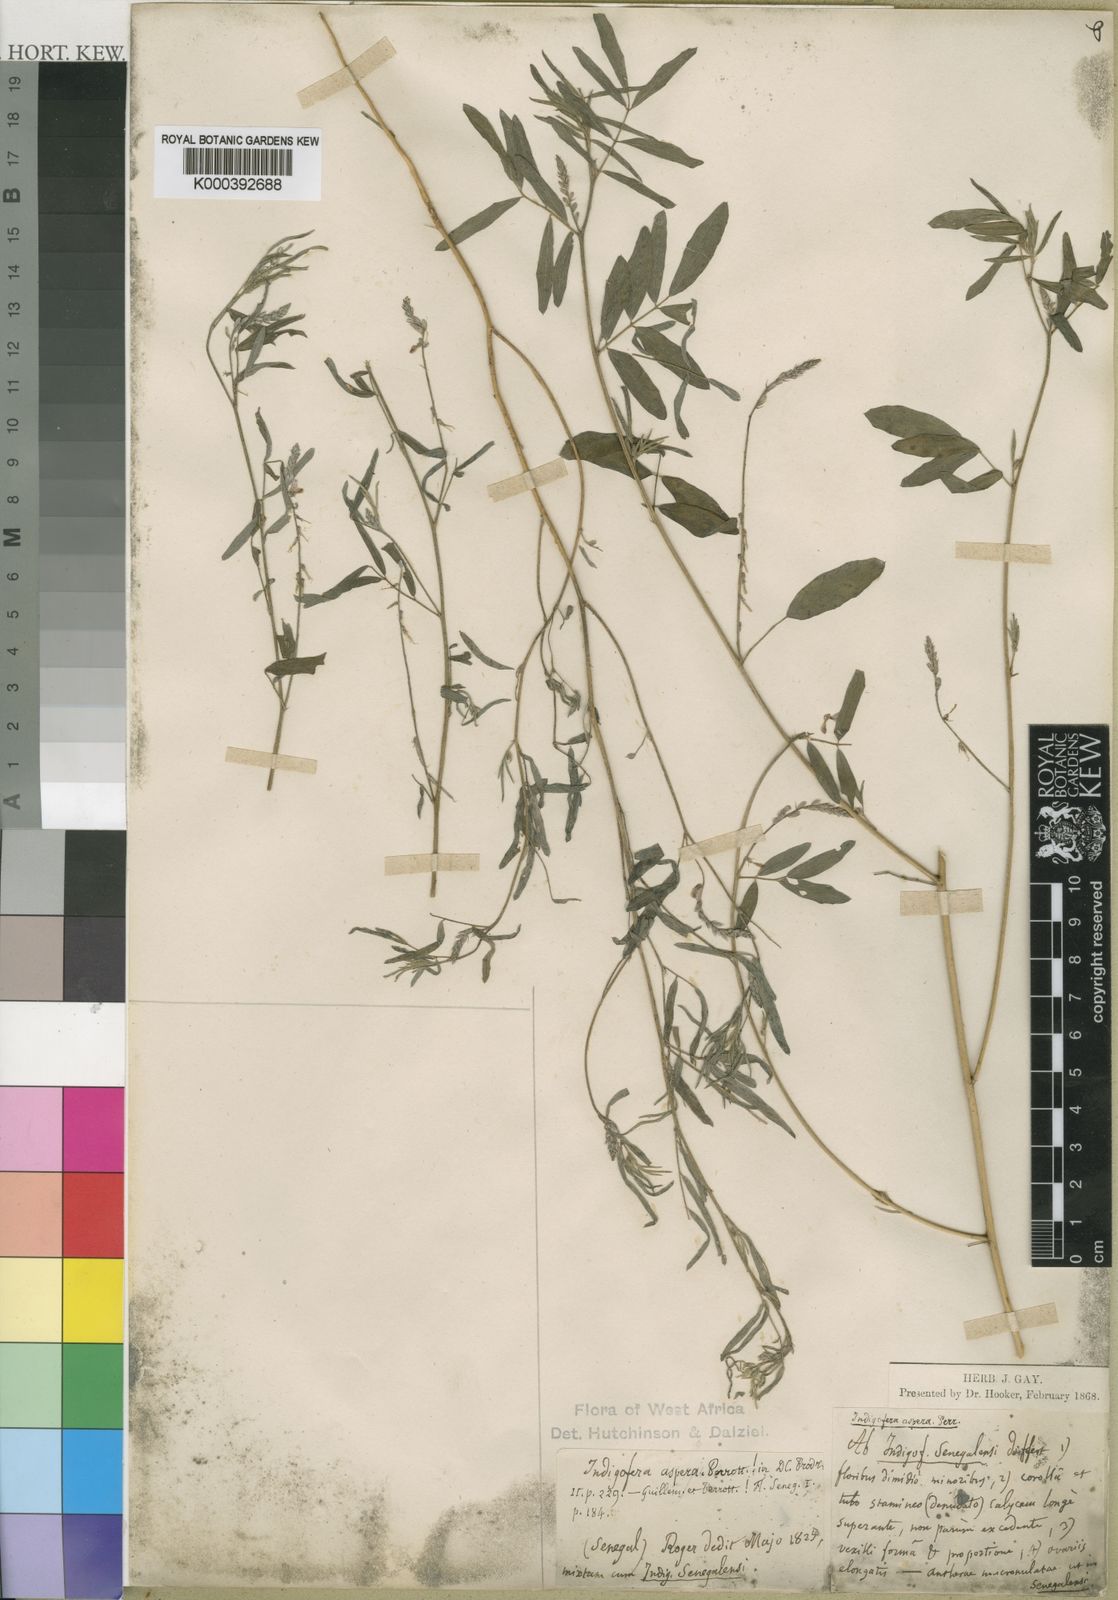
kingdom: Plantae
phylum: Tracheophyta
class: Magnoliopsida
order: Fabales
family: Fabaceae
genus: Indigofera
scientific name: Indigofera aspera
